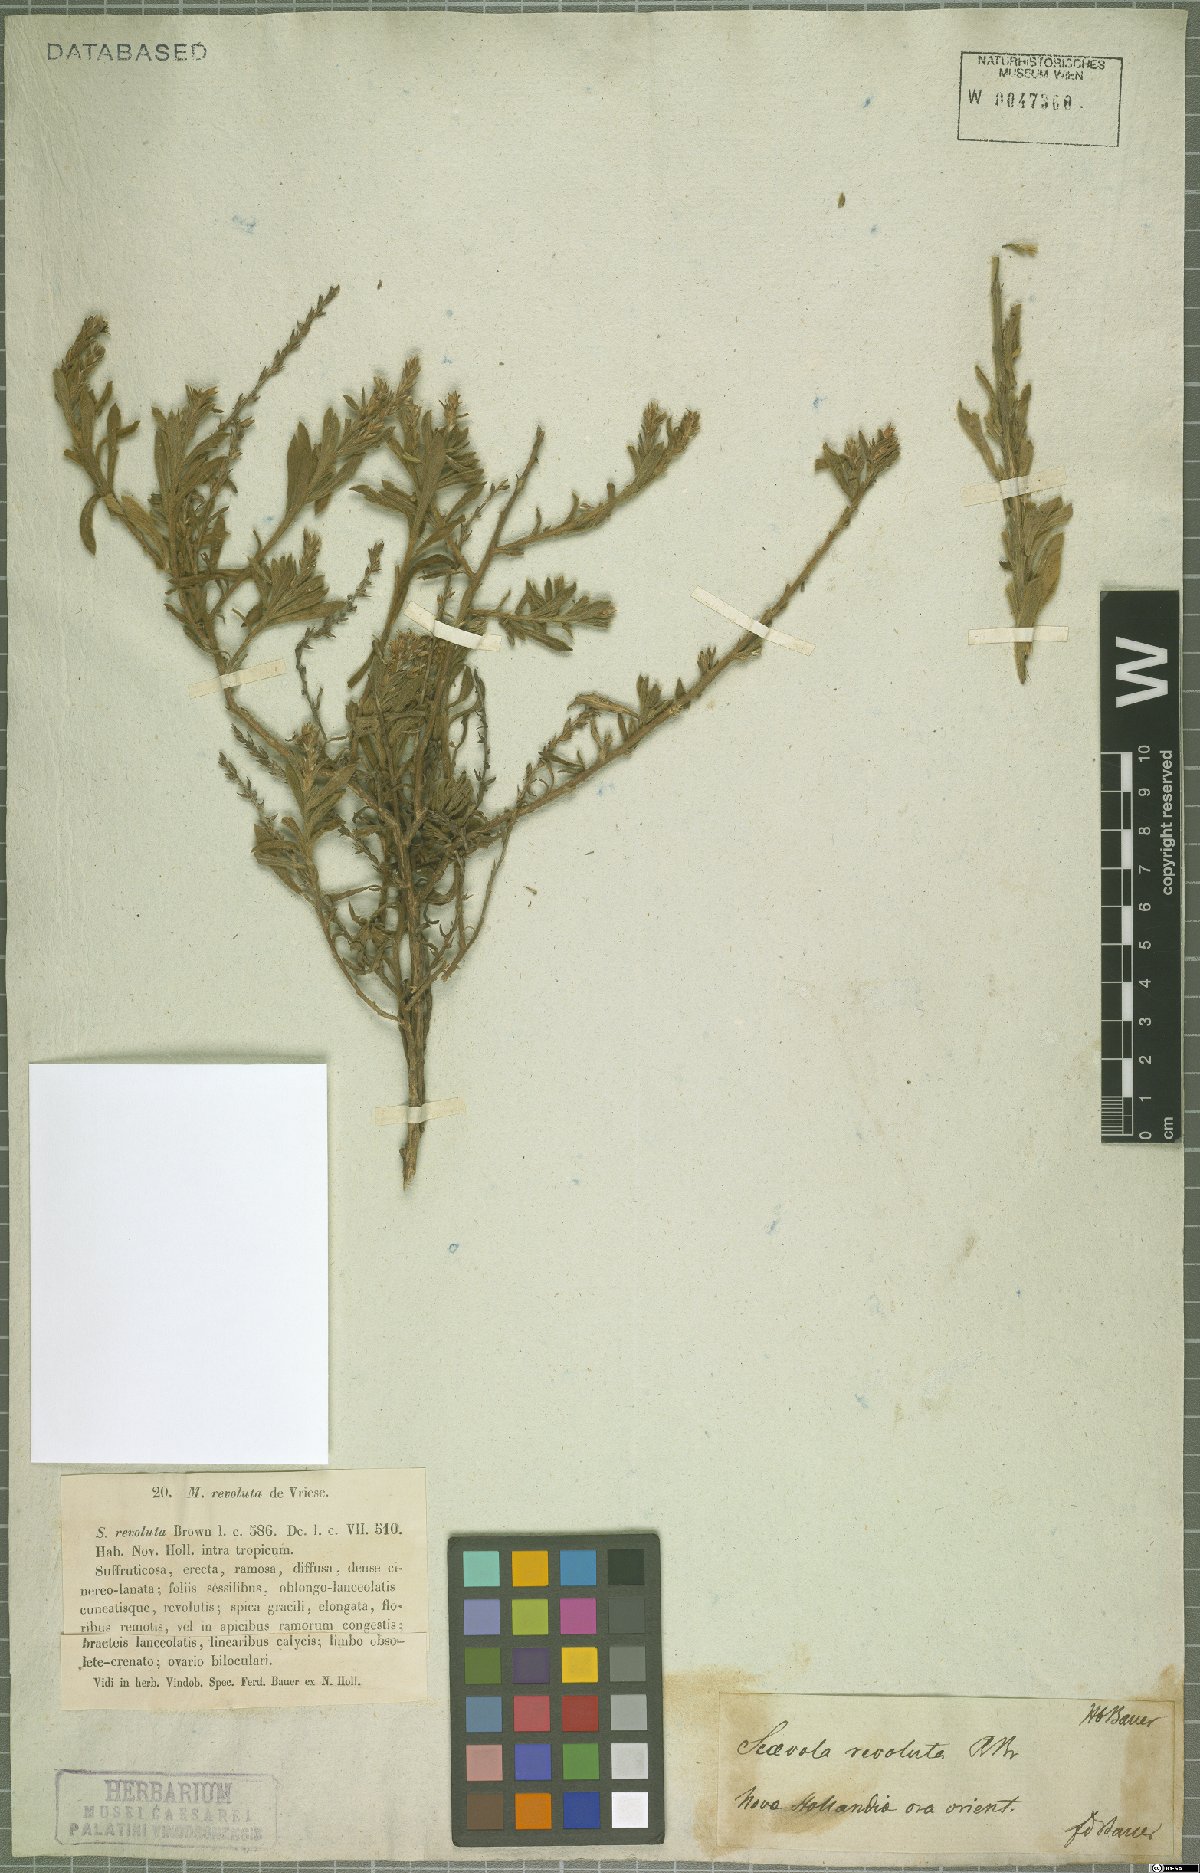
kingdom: Plantae
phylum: Tracheophyta
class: Magnoliopsida
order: Asterales
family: Goodeniaceae
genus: Scaevola
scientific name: Scaevola revoluta
